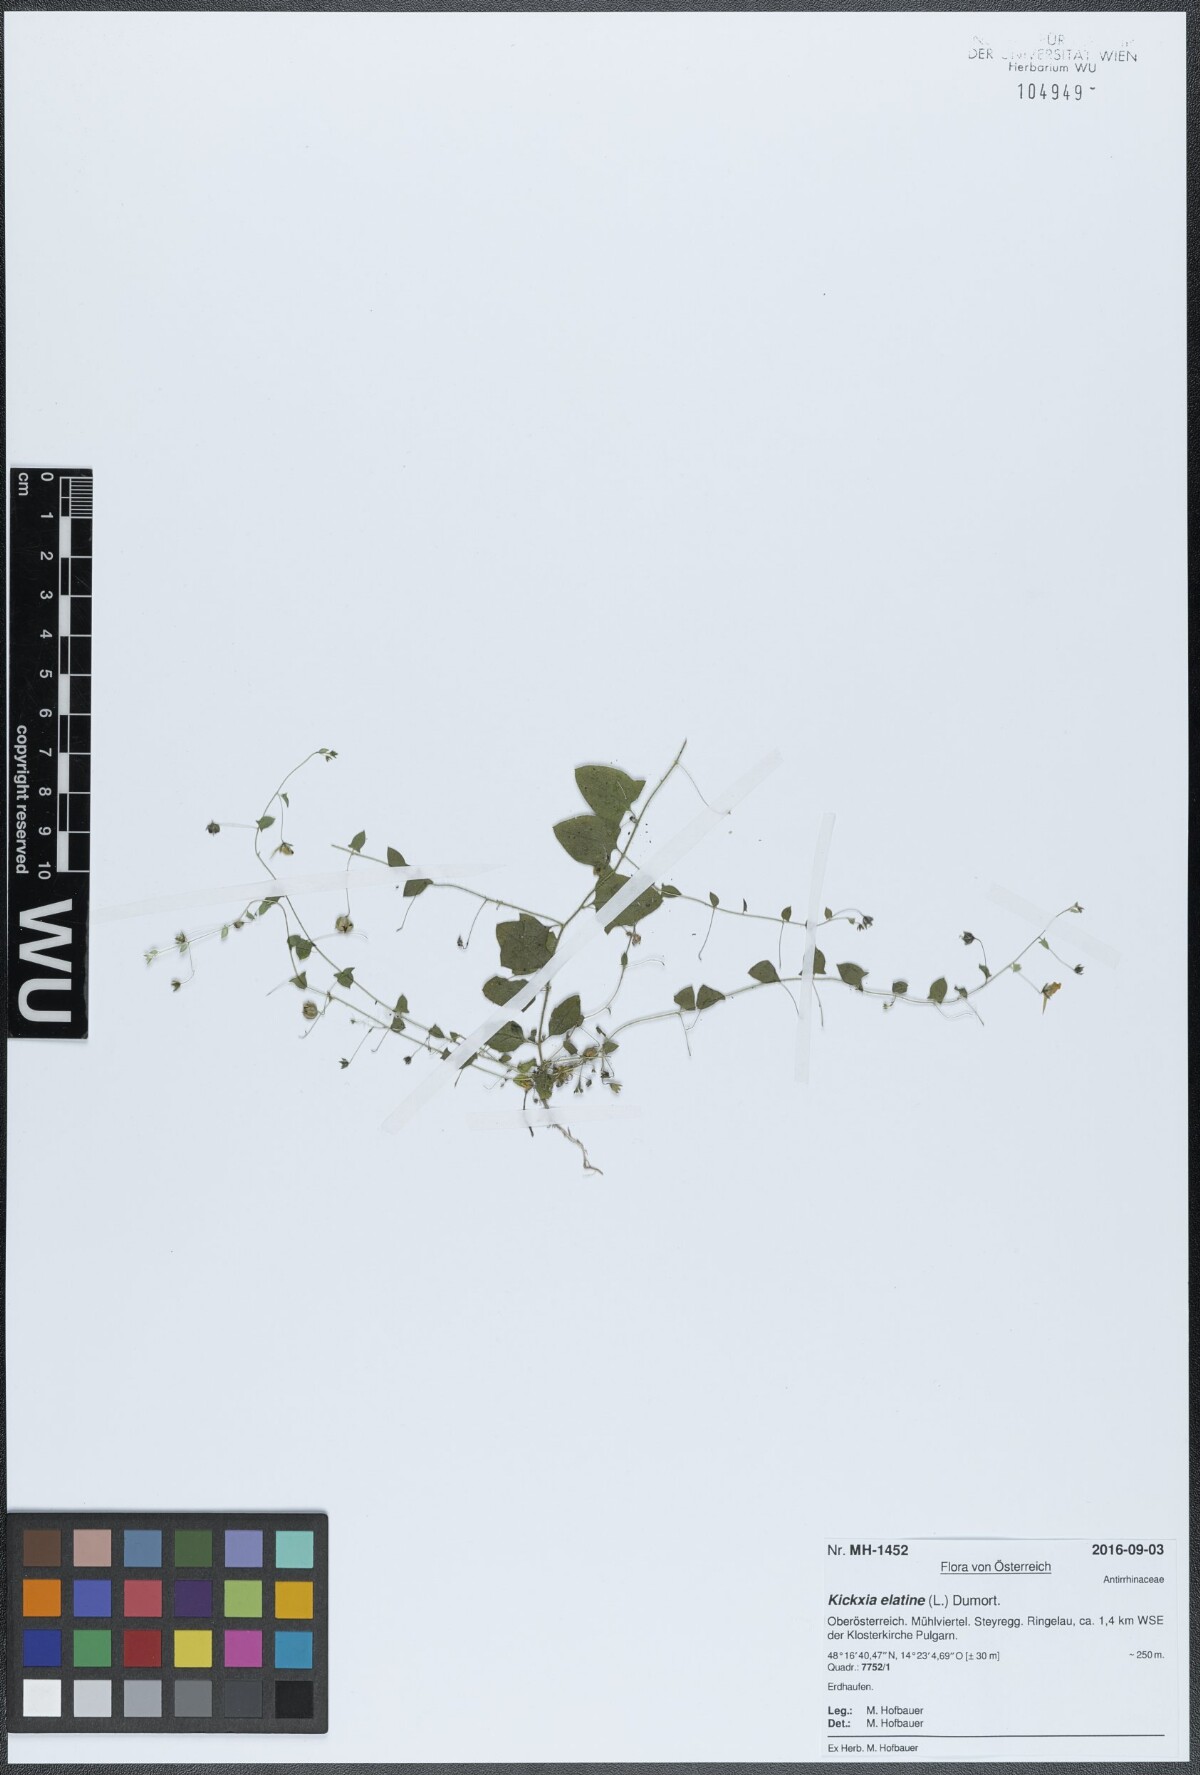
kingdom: Plantae
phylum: Tracheophyta
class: Magnoliopsida
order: Lamiales
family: Plantaginaceae
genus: Kickxia
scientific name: Kickxia elatine
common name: Sharp-leaved fluellen
